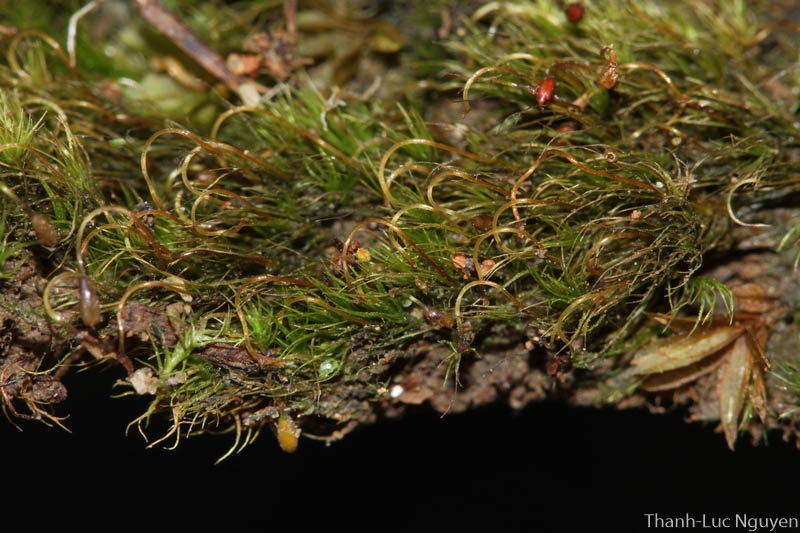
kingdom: Plantae
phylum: Bryophyta
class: Bryopsida
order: Dicranales
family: Dicranellaceae
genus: Microcampylopus
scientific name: Microcampylopus
